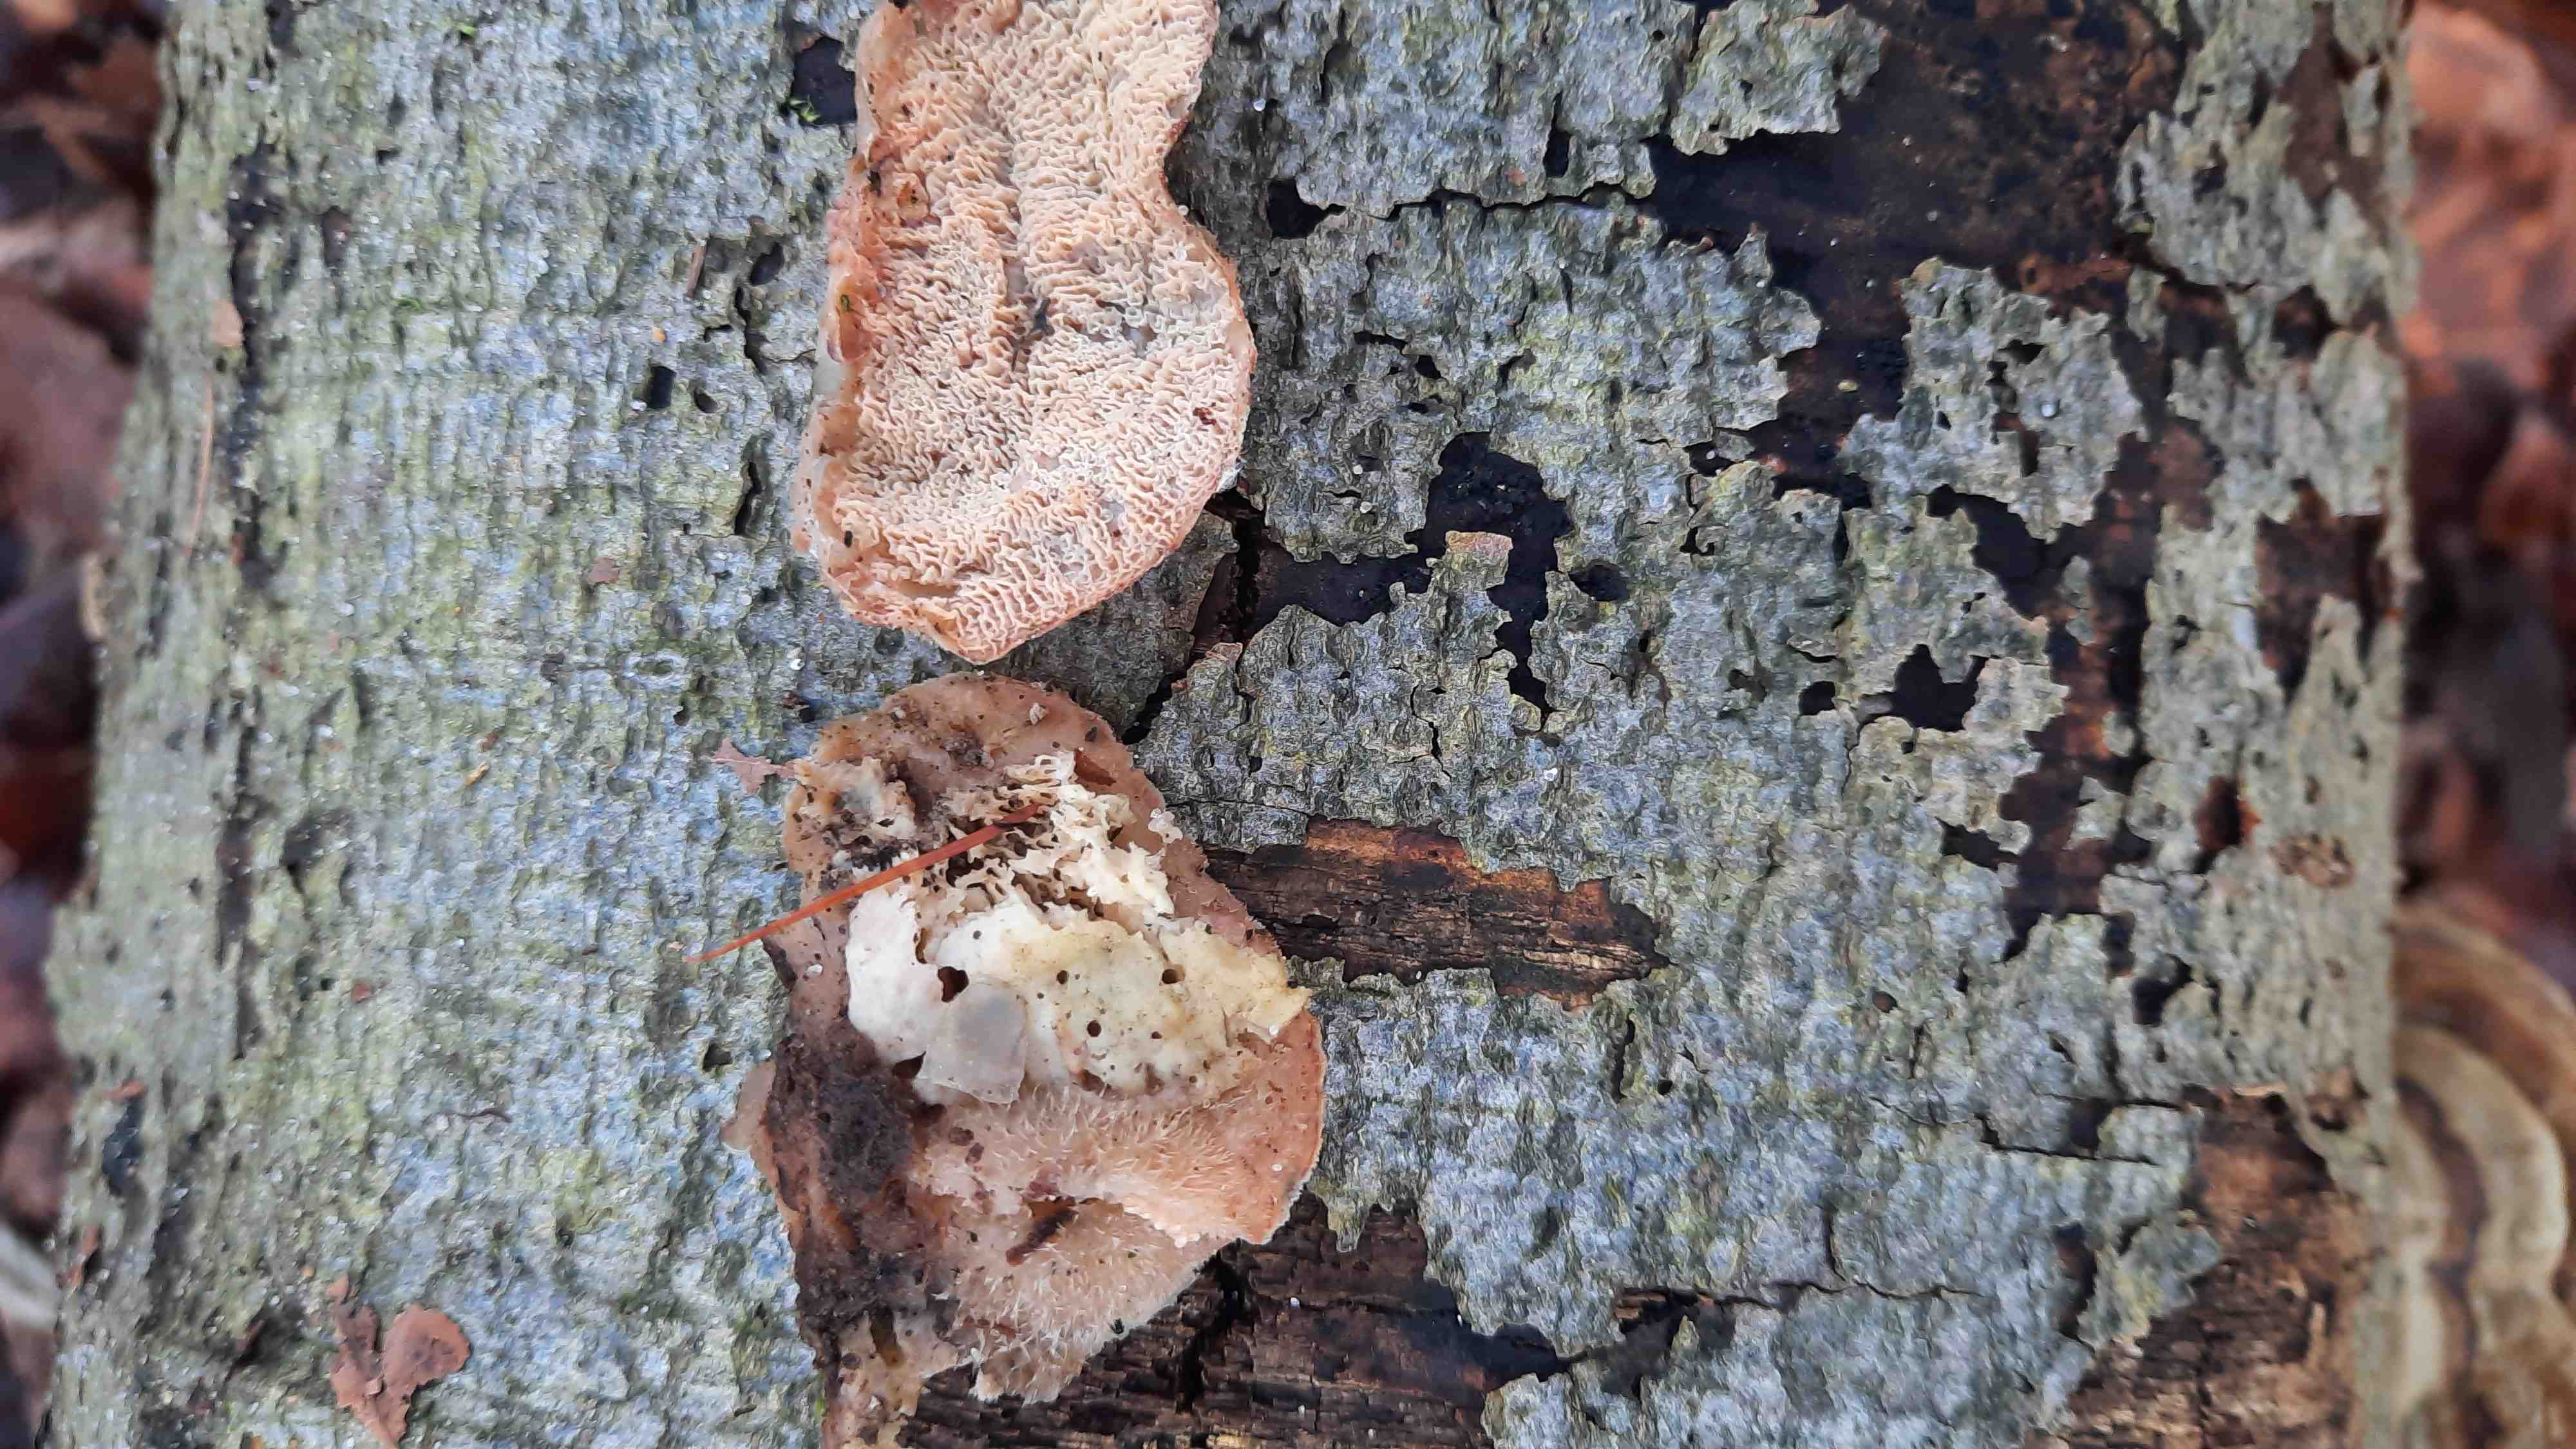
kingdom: Fungi
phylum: Basidiomycota
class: Agaricomycetes
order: Polyporales
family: Meruliaceae
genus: Phlebia
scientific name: Phlebia tremellosa
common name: bævrende åresvamp
